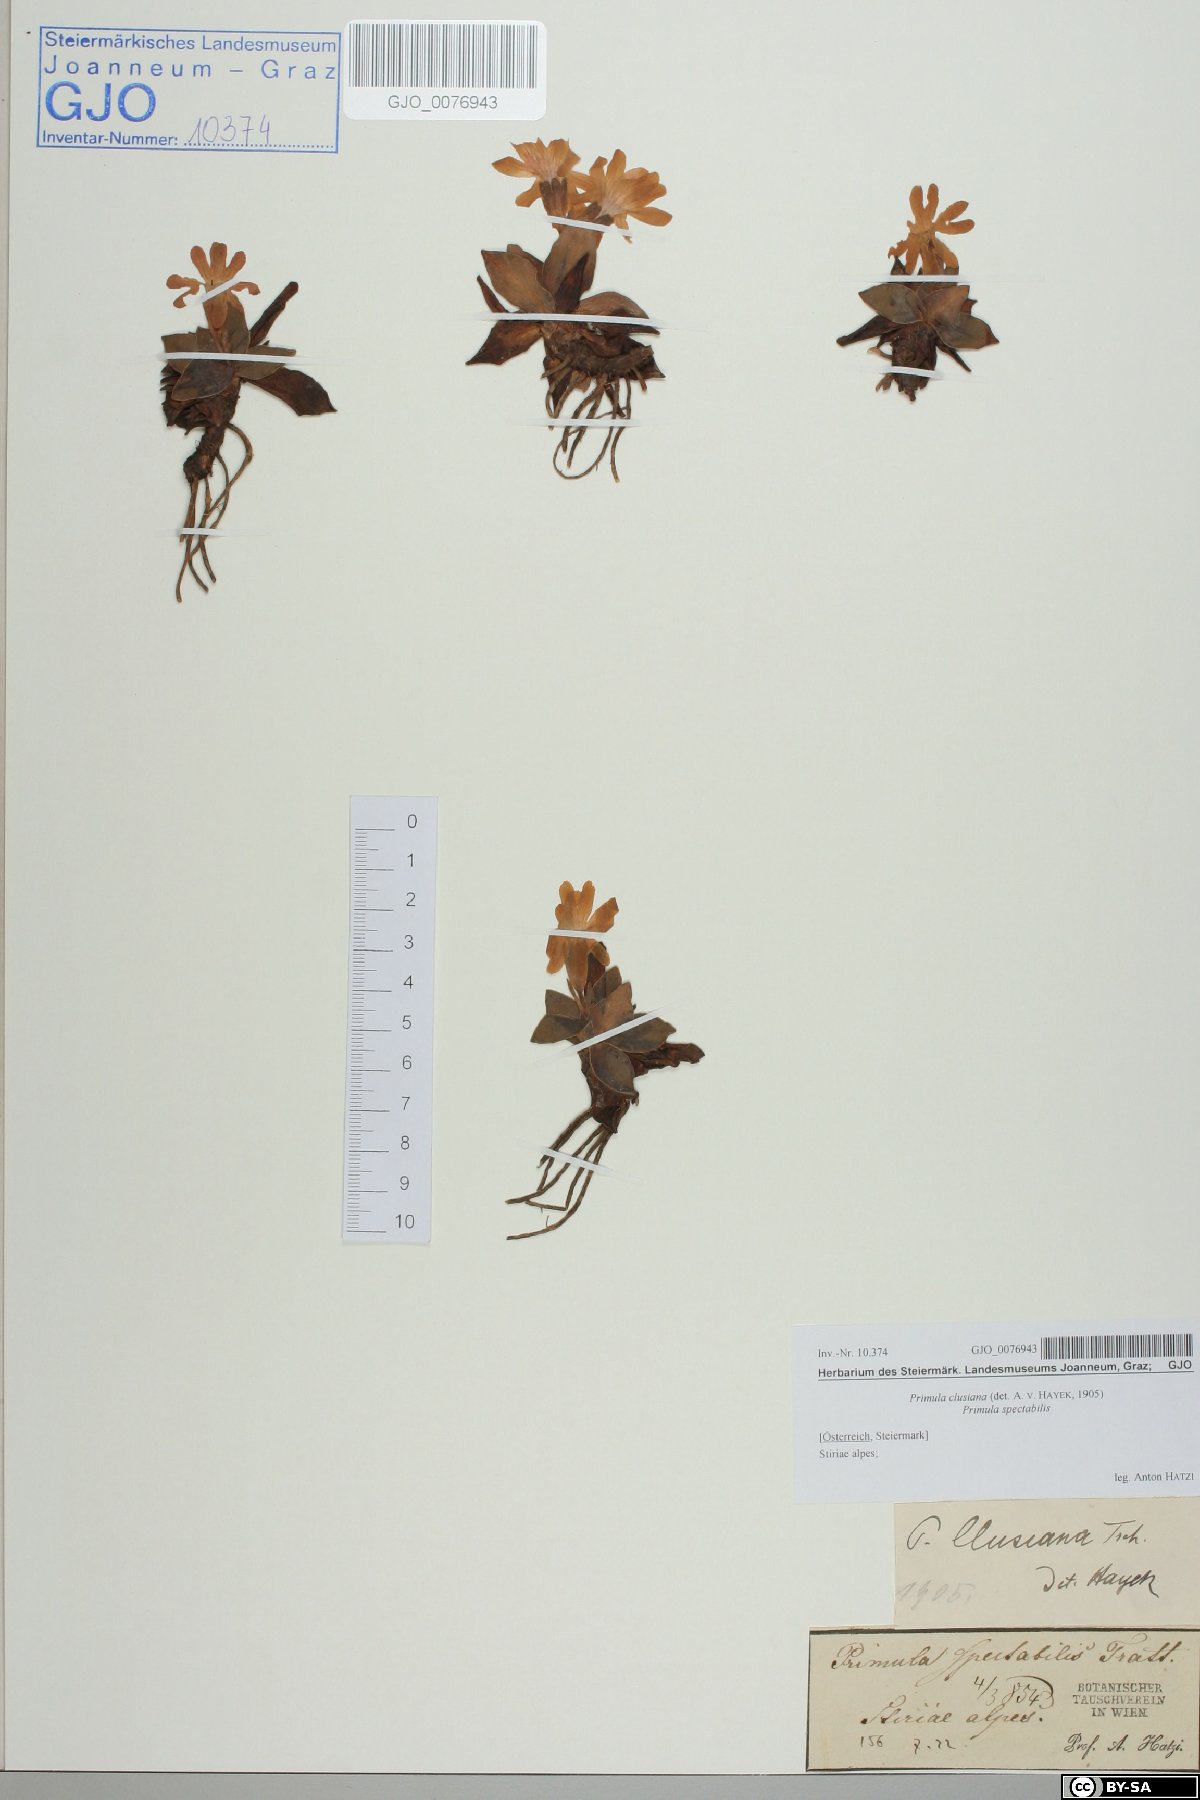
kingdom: Plantae
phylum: Tracheophyta
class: Magnoliopsida
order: Ericales
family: Primulaceae
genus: Primula
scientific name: Primula clusiana
